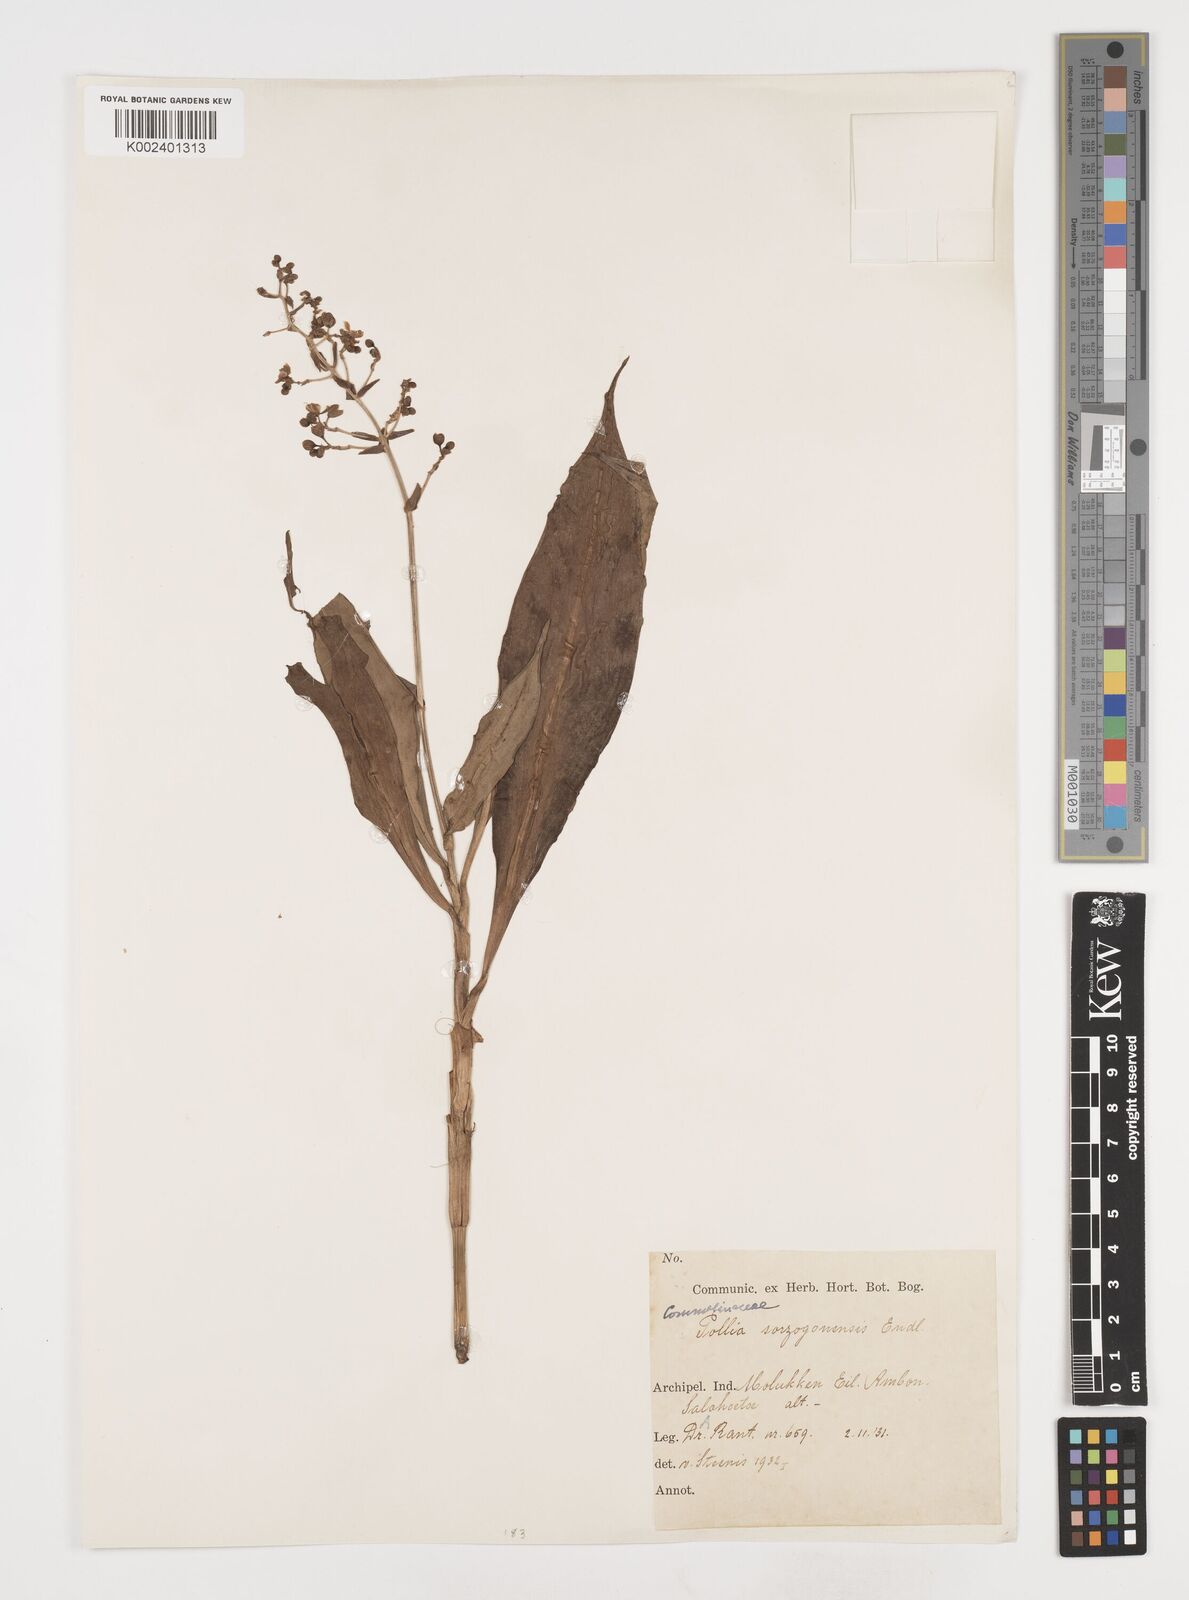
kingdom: Plantae
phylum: Tracheophyta
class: Liliopsida
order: Commelinales
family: Commelinaceae
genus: Pollia
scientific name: Pollia secundiflora
